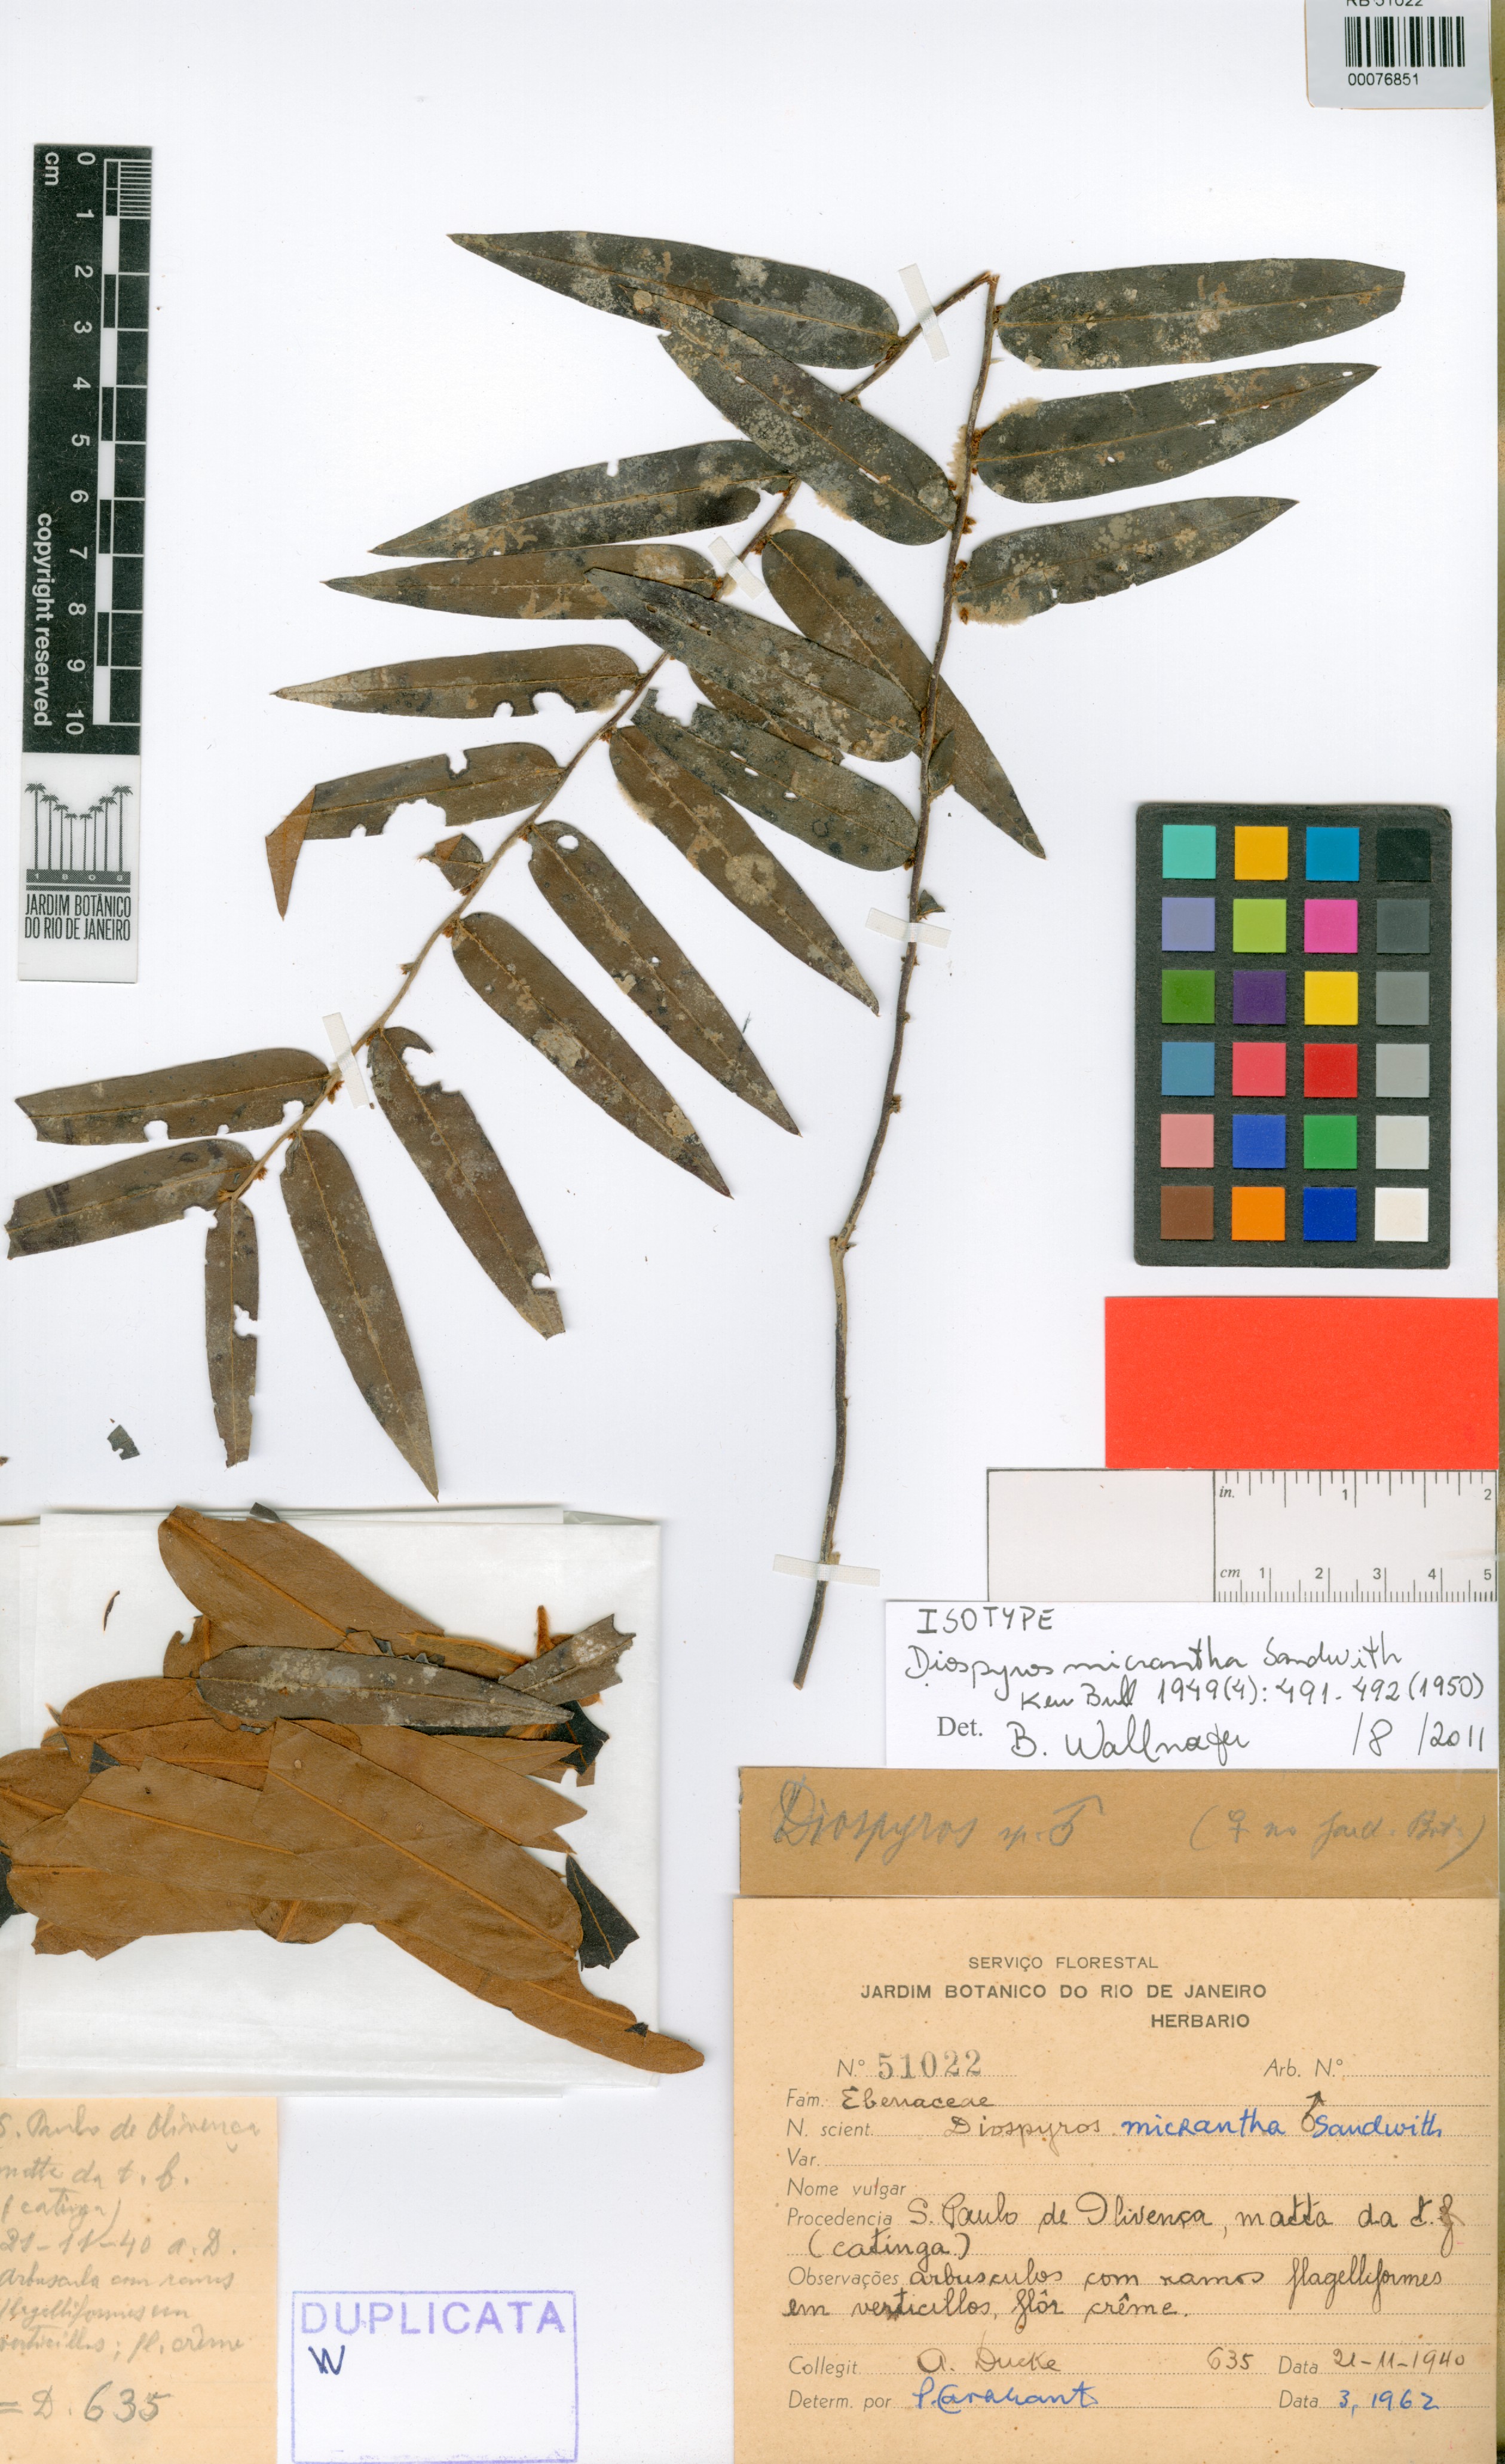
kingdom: Plantae
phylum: Tracheophyta
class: Magnoliopsida
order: Ericales
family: Ebenaceae
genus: Diospyros
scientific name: Diospyros micrantha
